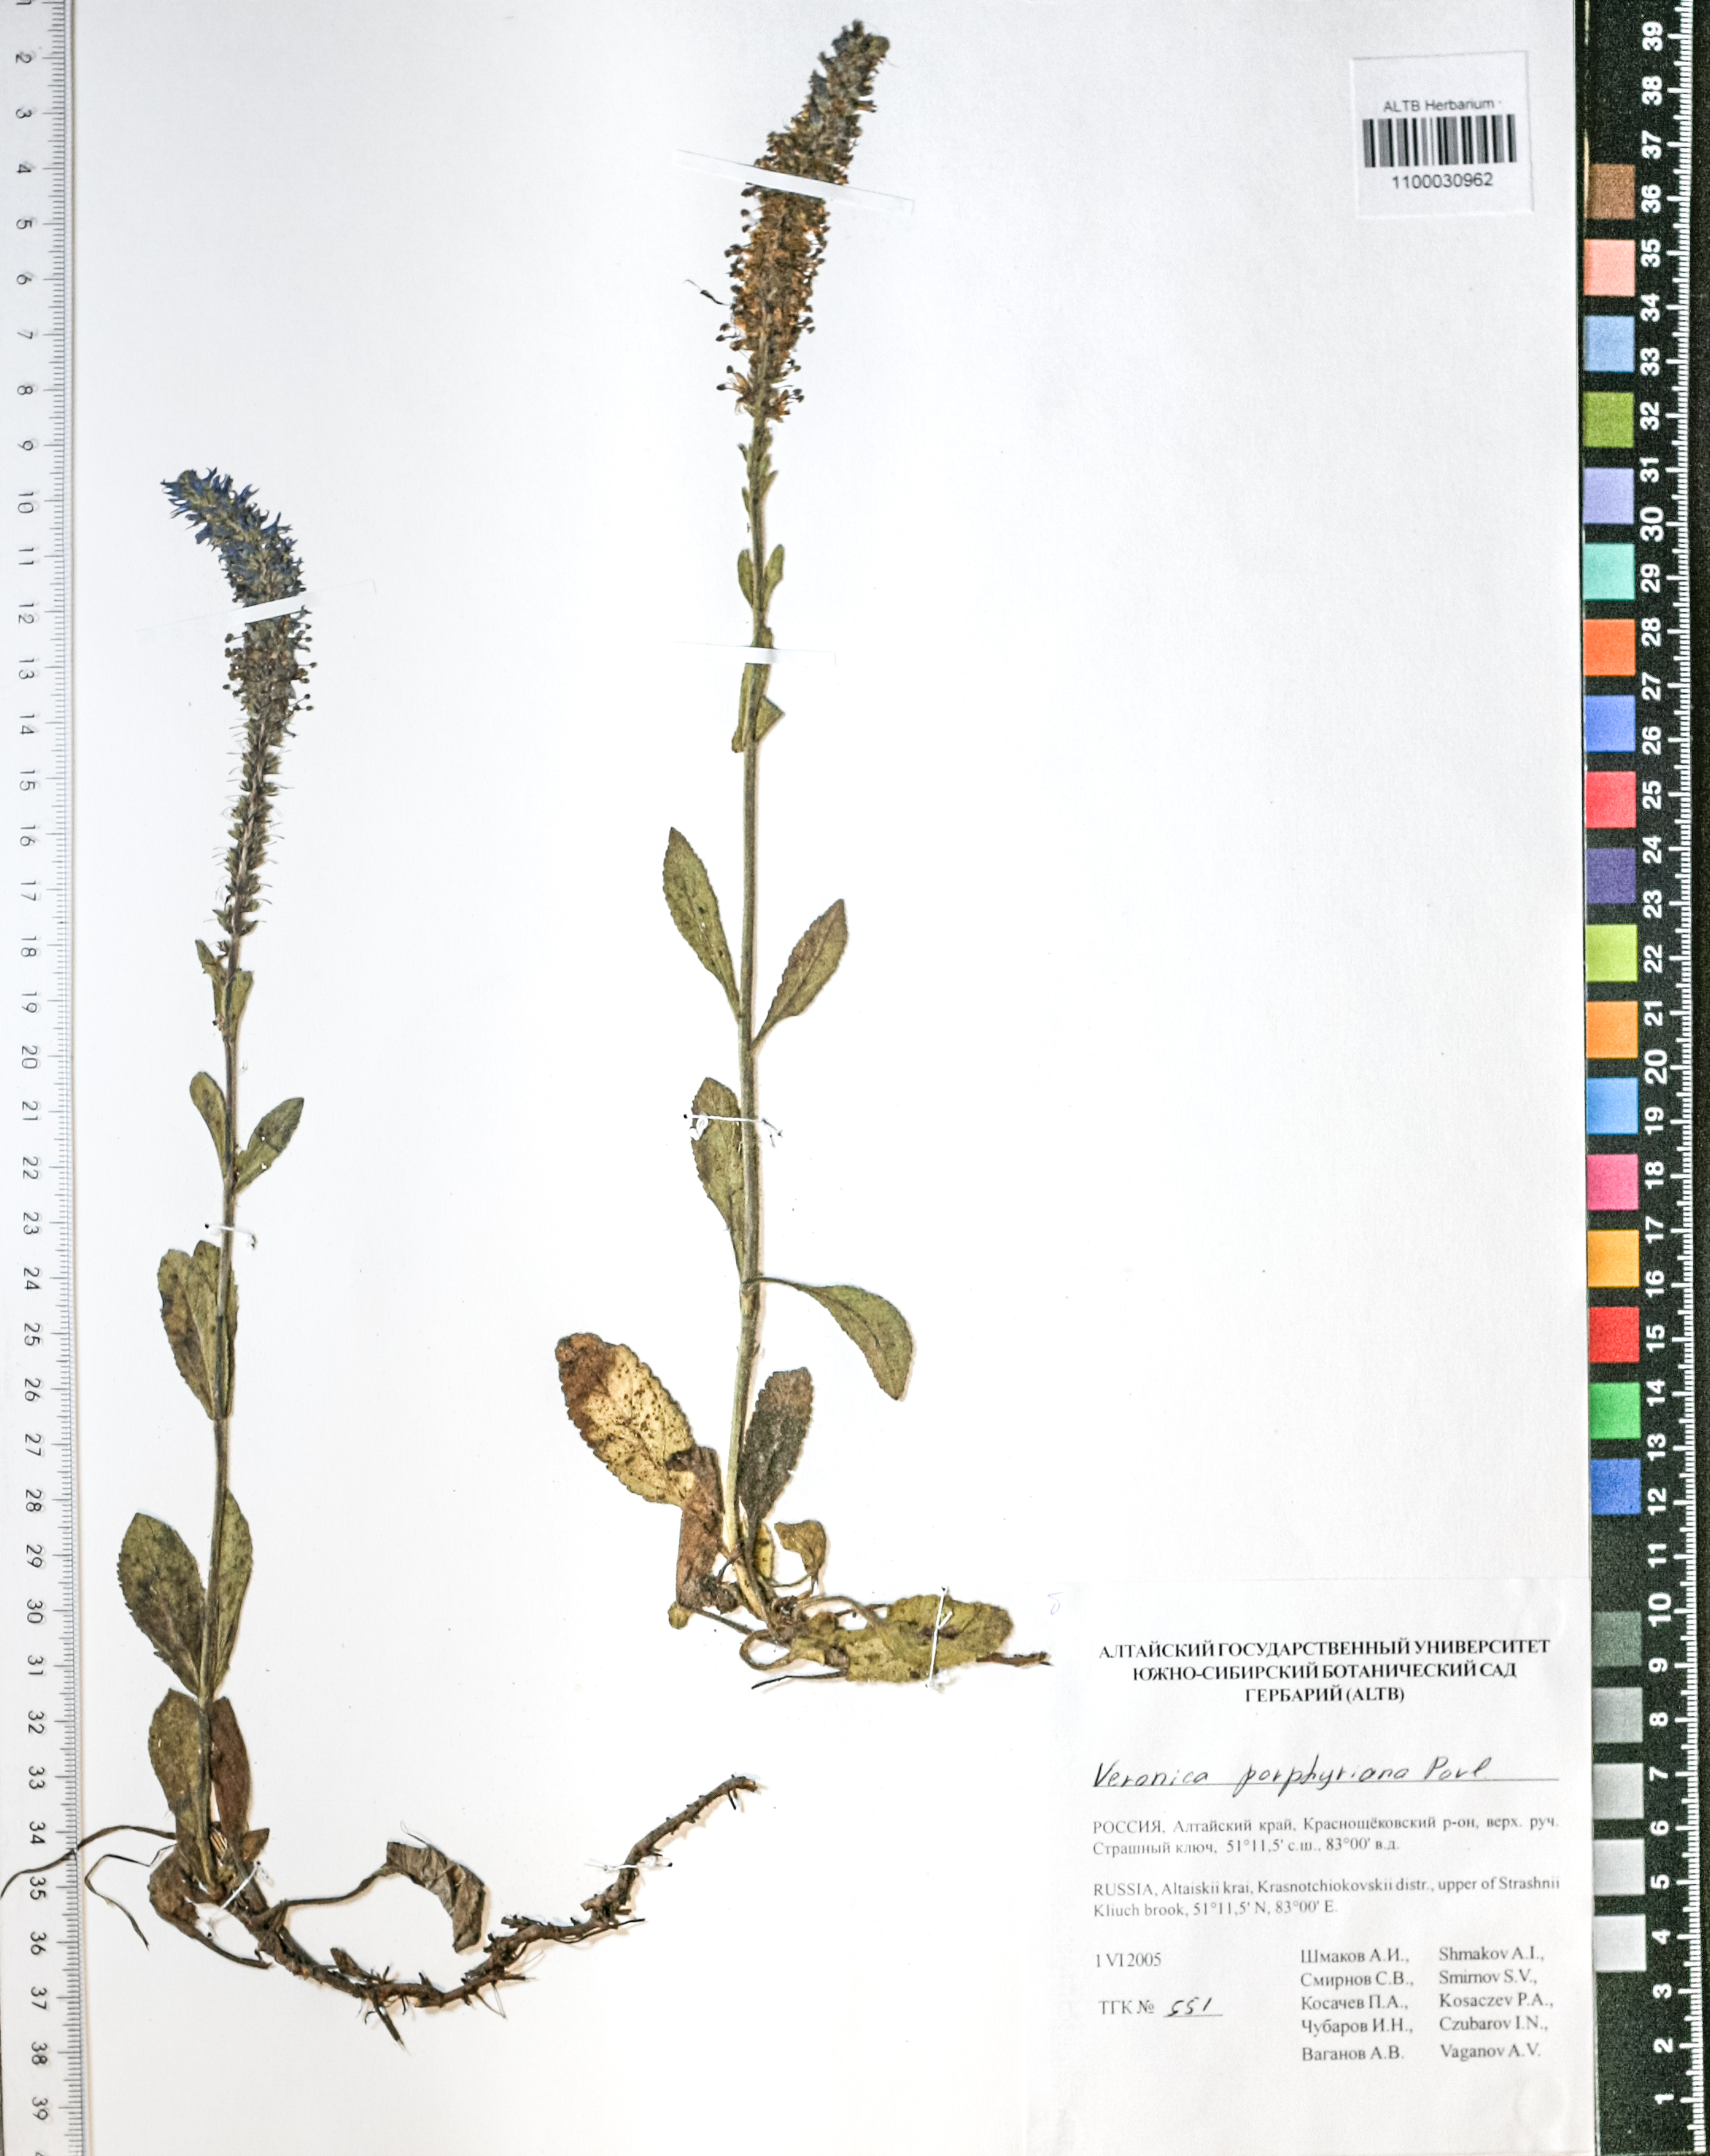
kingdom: Plantae
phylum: Tracheophyta
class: Magnoliopsida
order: Lamiales
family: Plantaginaceae
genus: Veronica
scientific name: Veronica porphyriana
